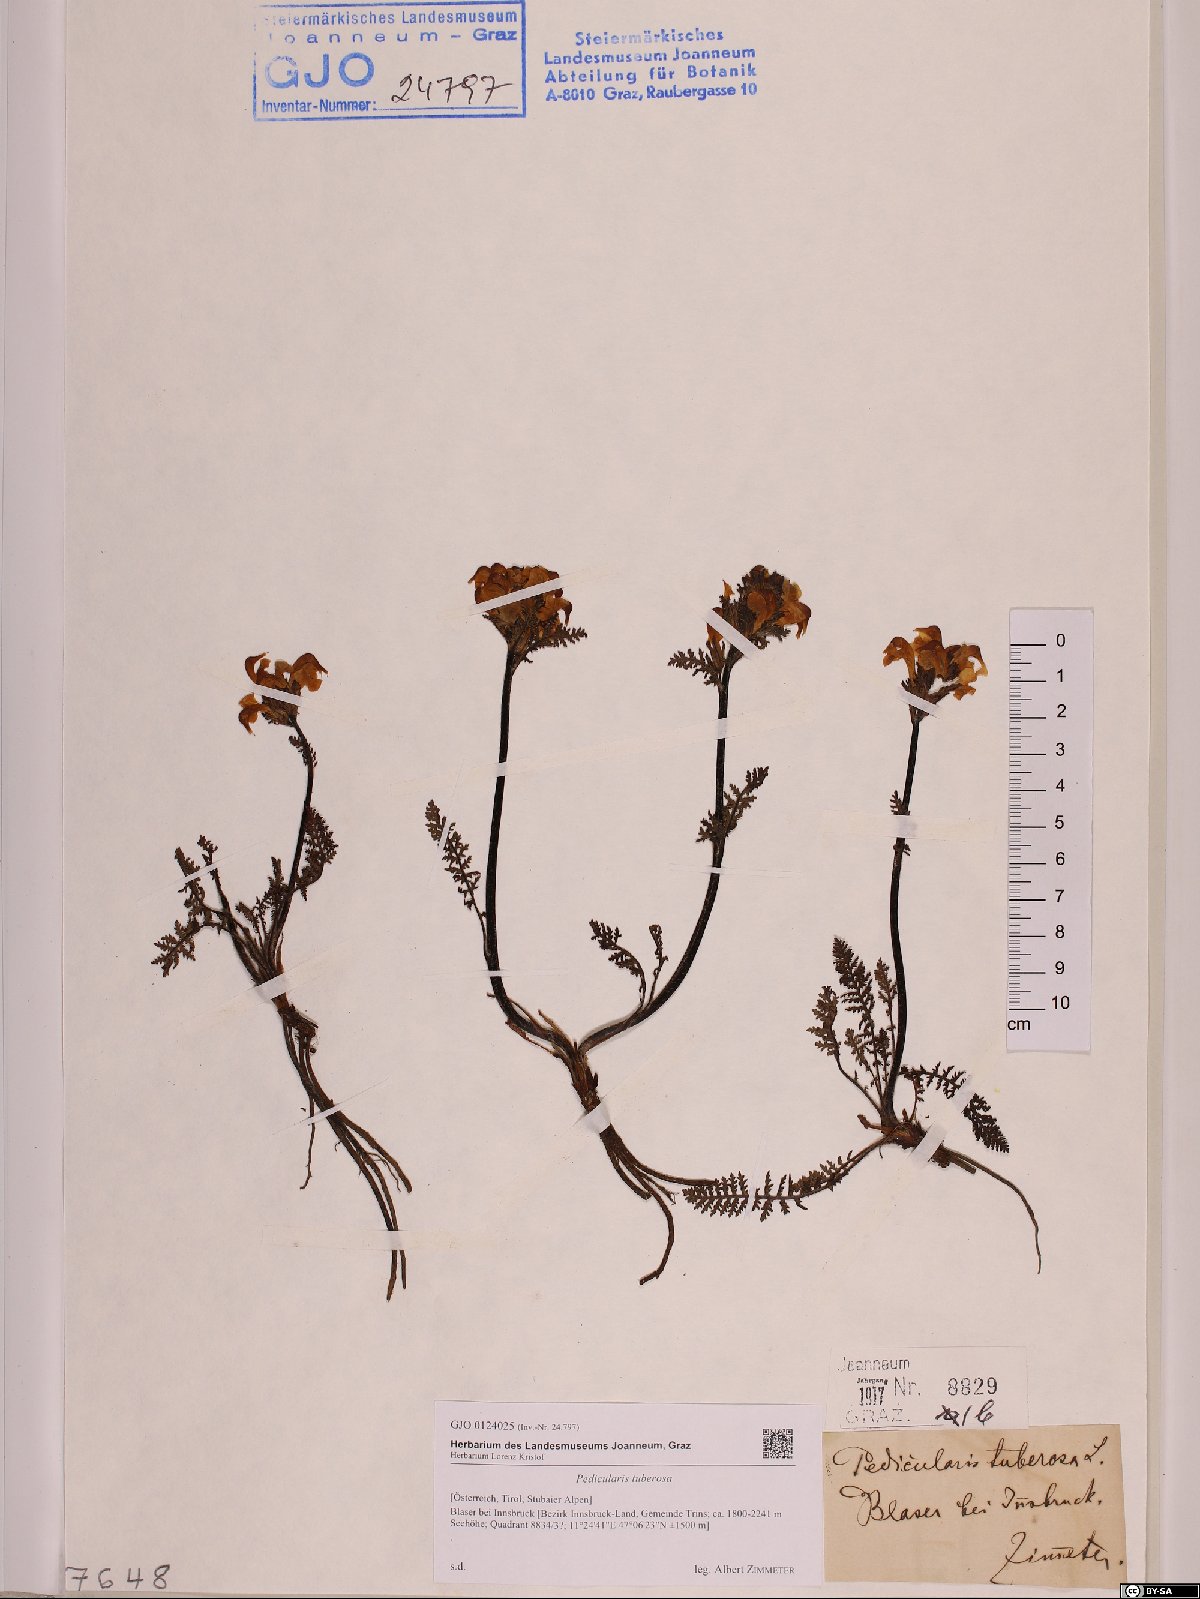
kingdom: Plantae
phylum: Tracheophyta
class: Magnoliopsida
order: Lamiales
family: Orobanchaceae
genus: Pedicularis
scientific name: Pedicularis tuberosa
